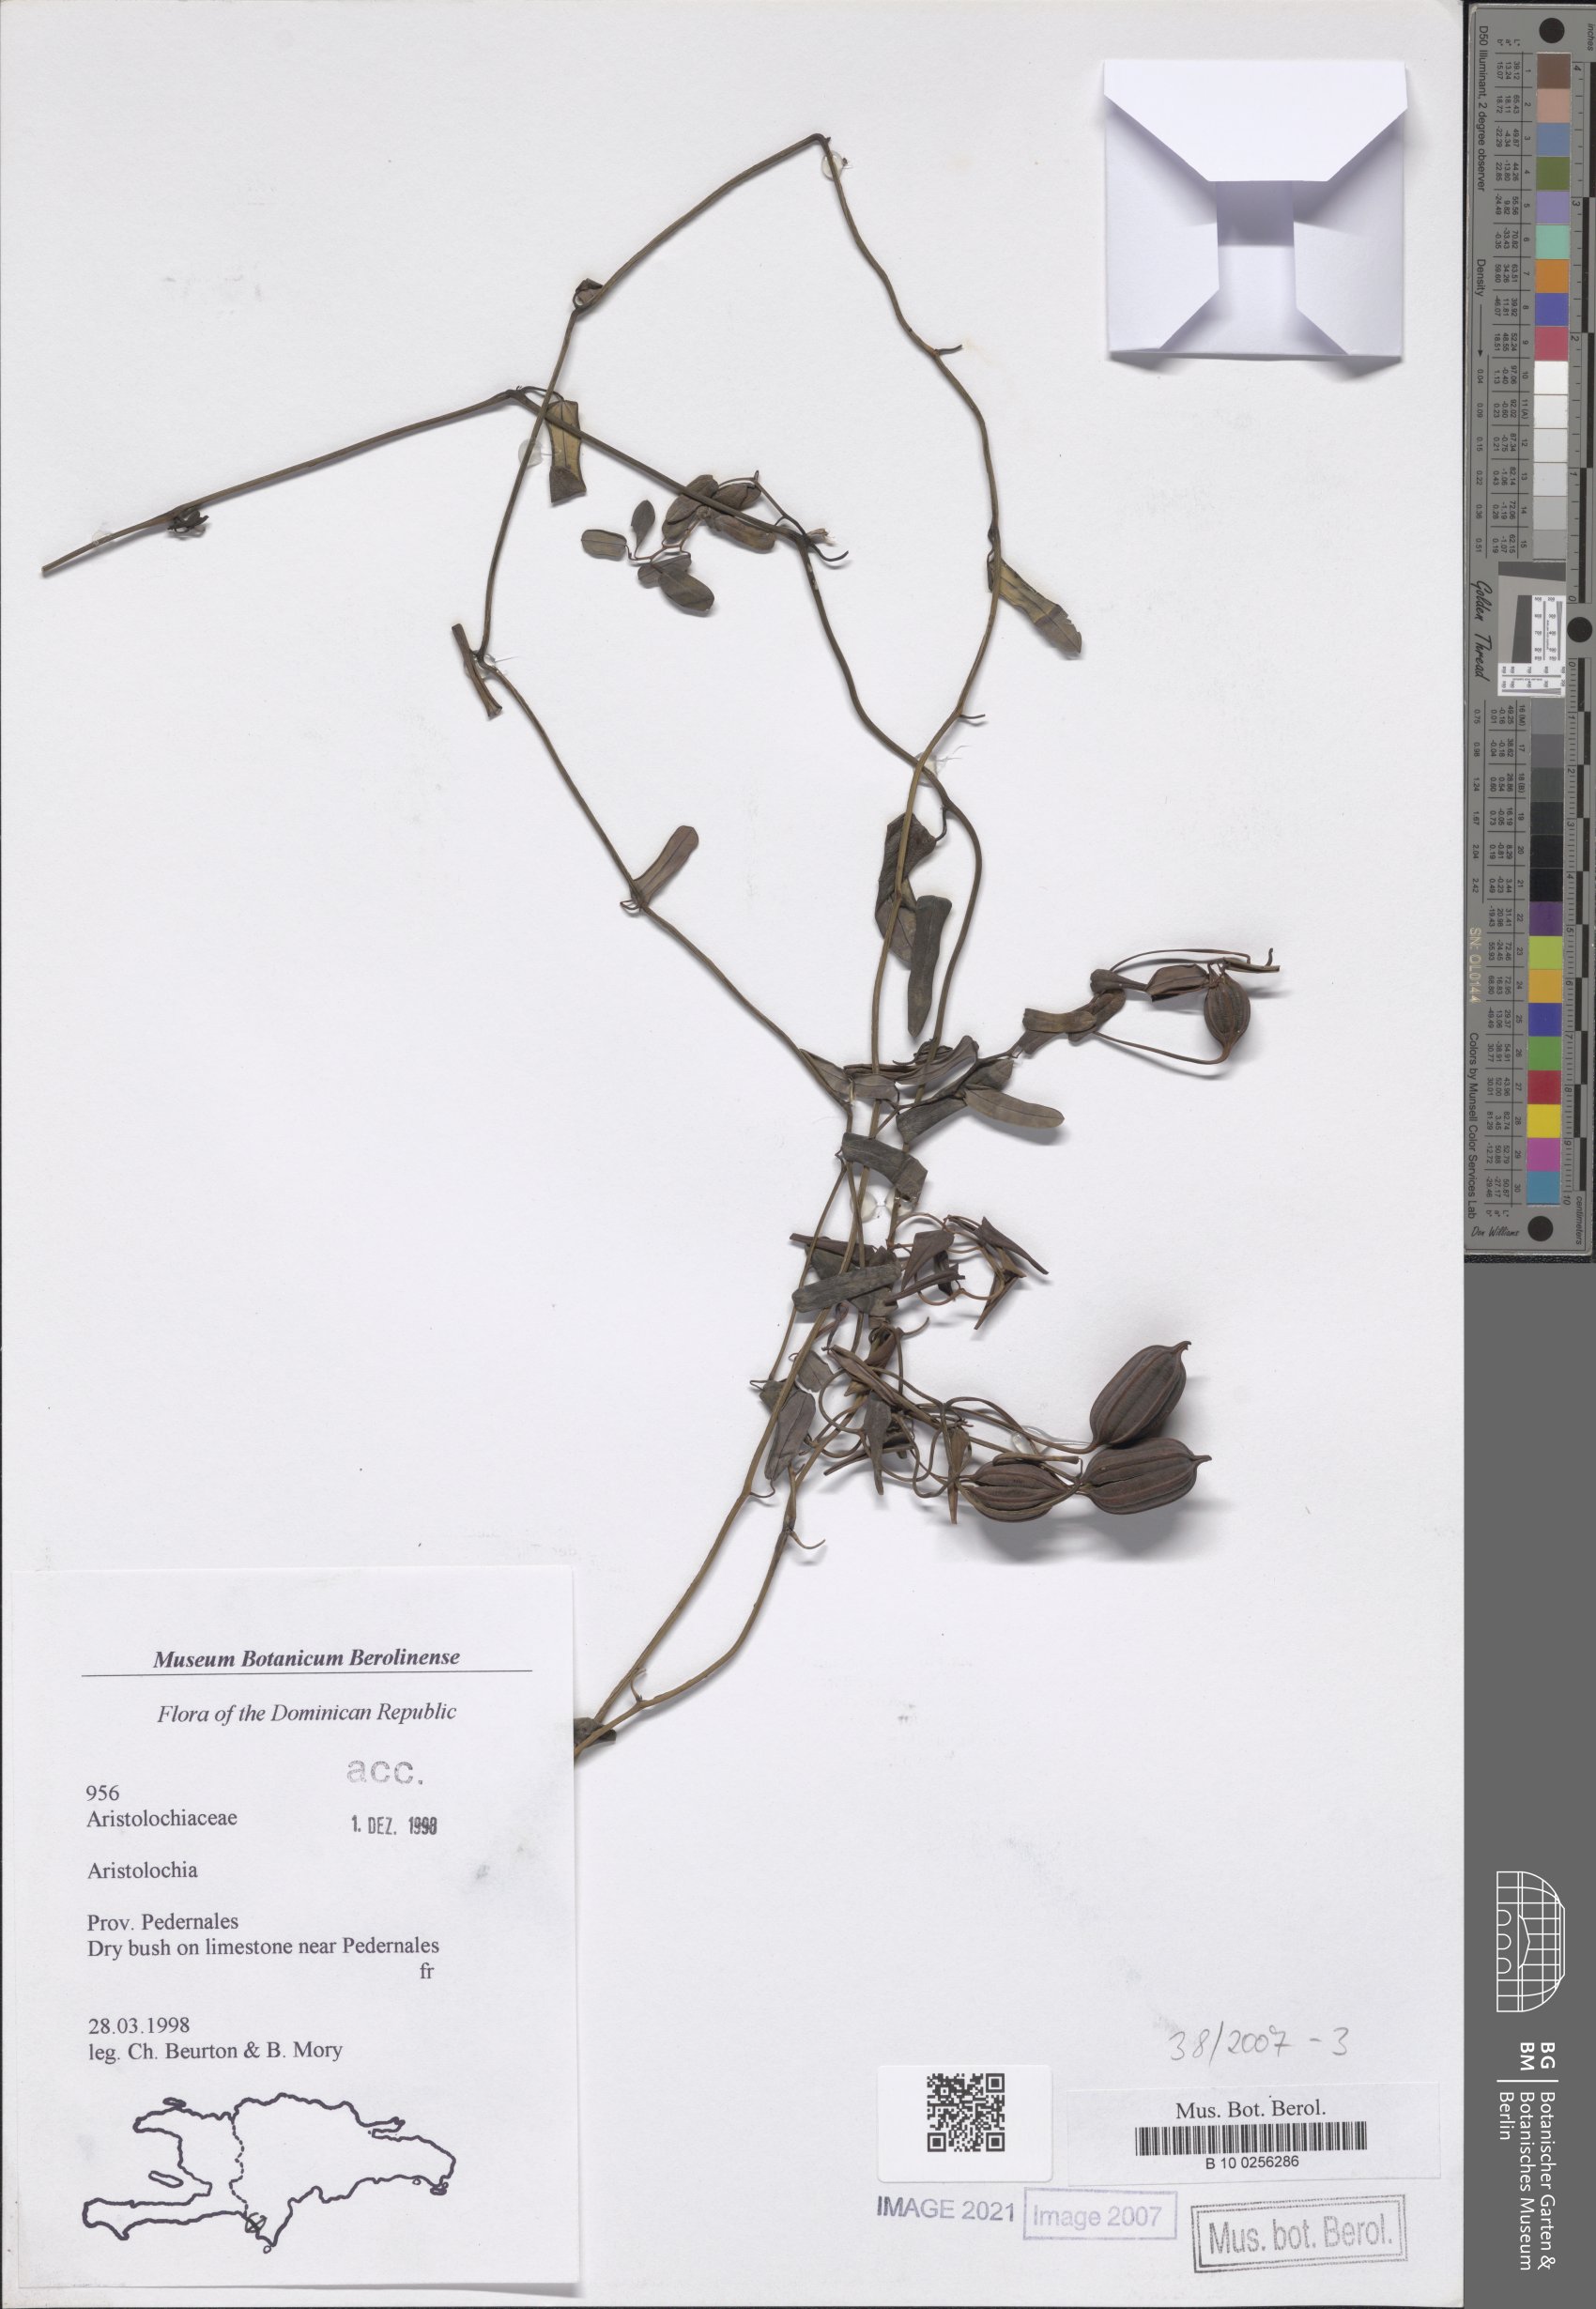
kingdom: Plantae
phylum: Tracheophyta
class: Magnoliopsida
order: Piperales
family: Aristolochiaceae
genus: Aristolochia
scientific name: Aristolochia
